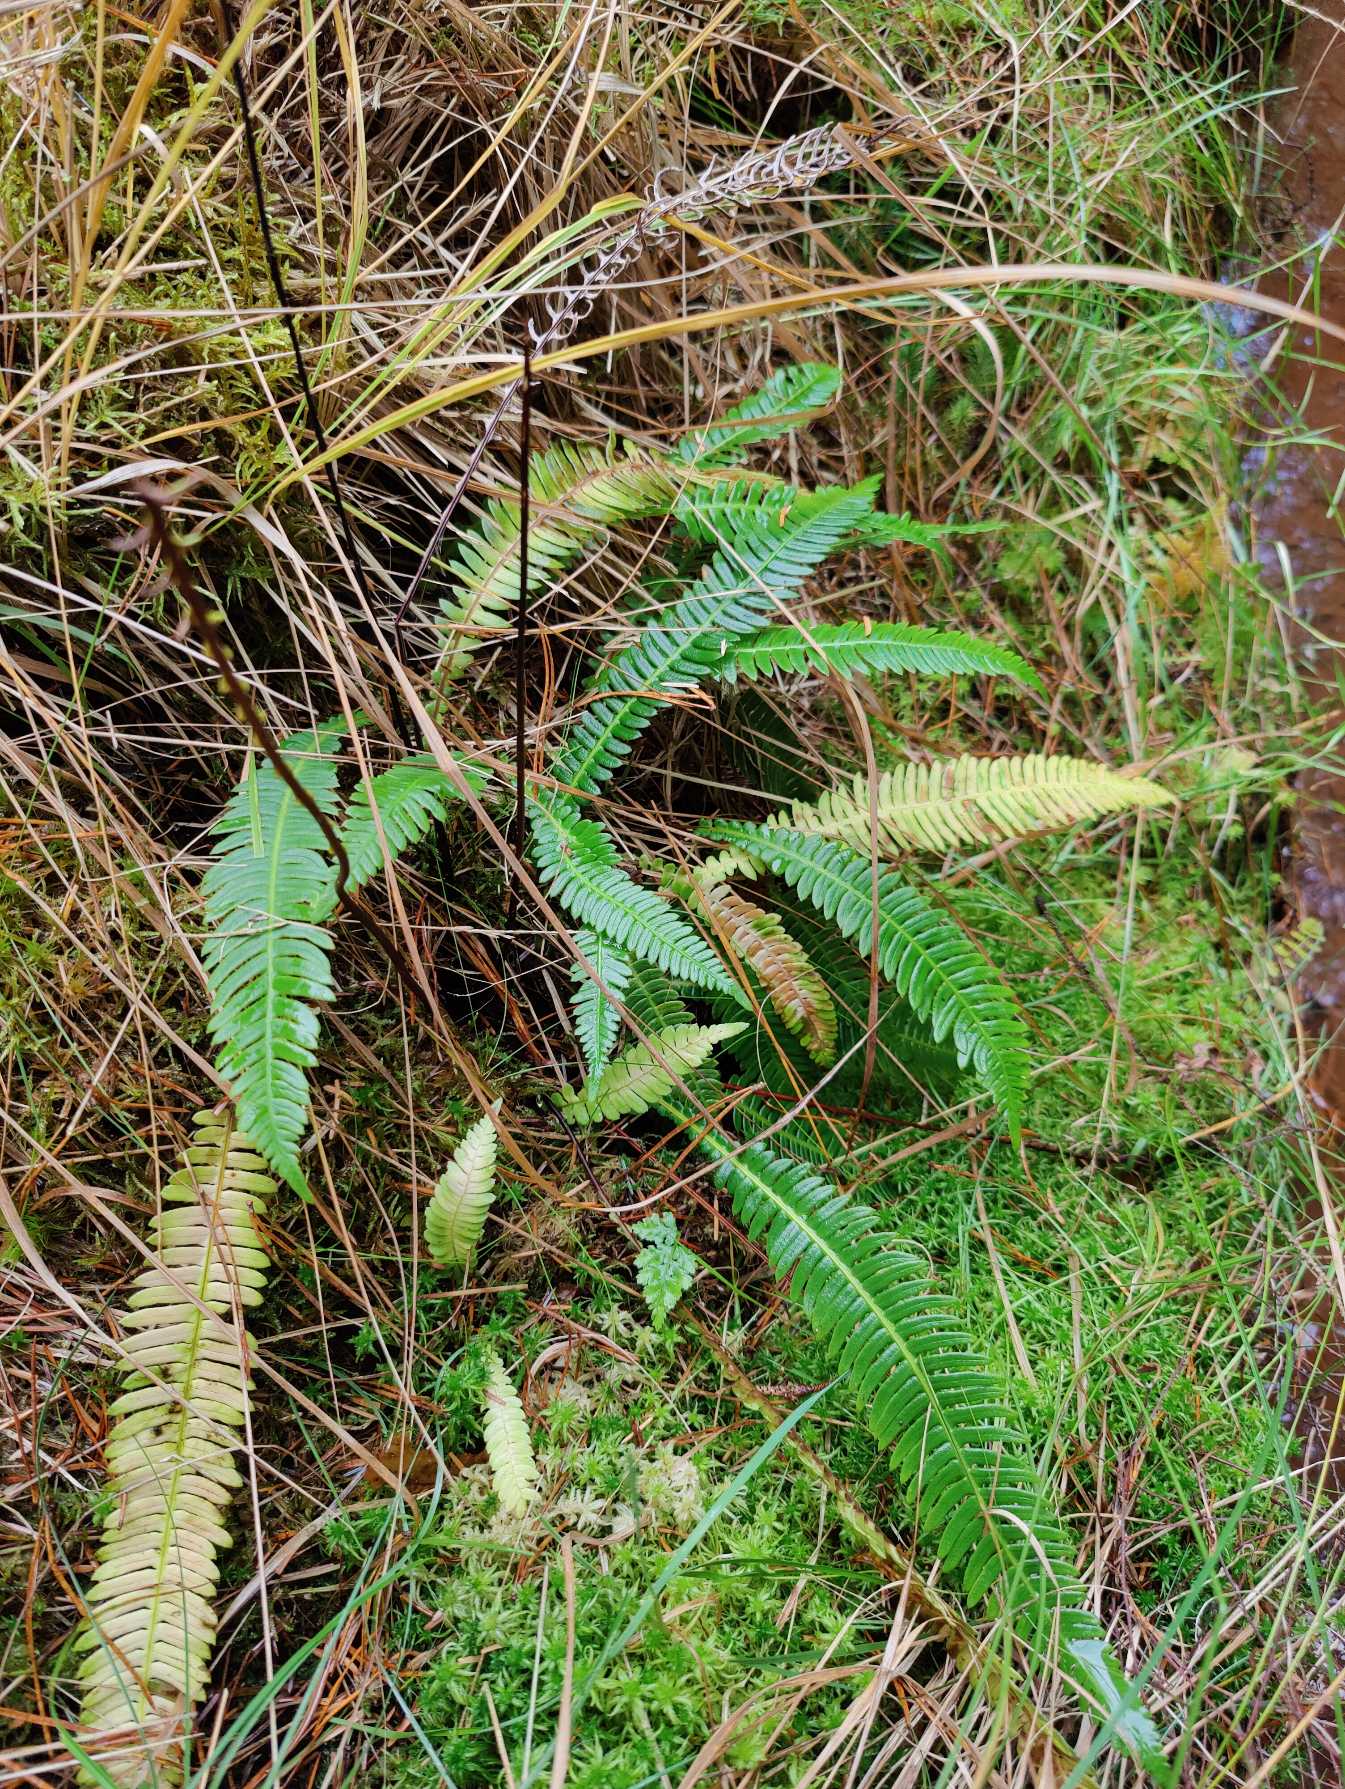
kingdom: Plantae
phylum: Tracheophyta
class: Polypodiopsida
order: Polypodiales
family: Blechnaceae
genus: Struthiopteris
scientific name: Struthiopteris spicant
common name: Kambregne
